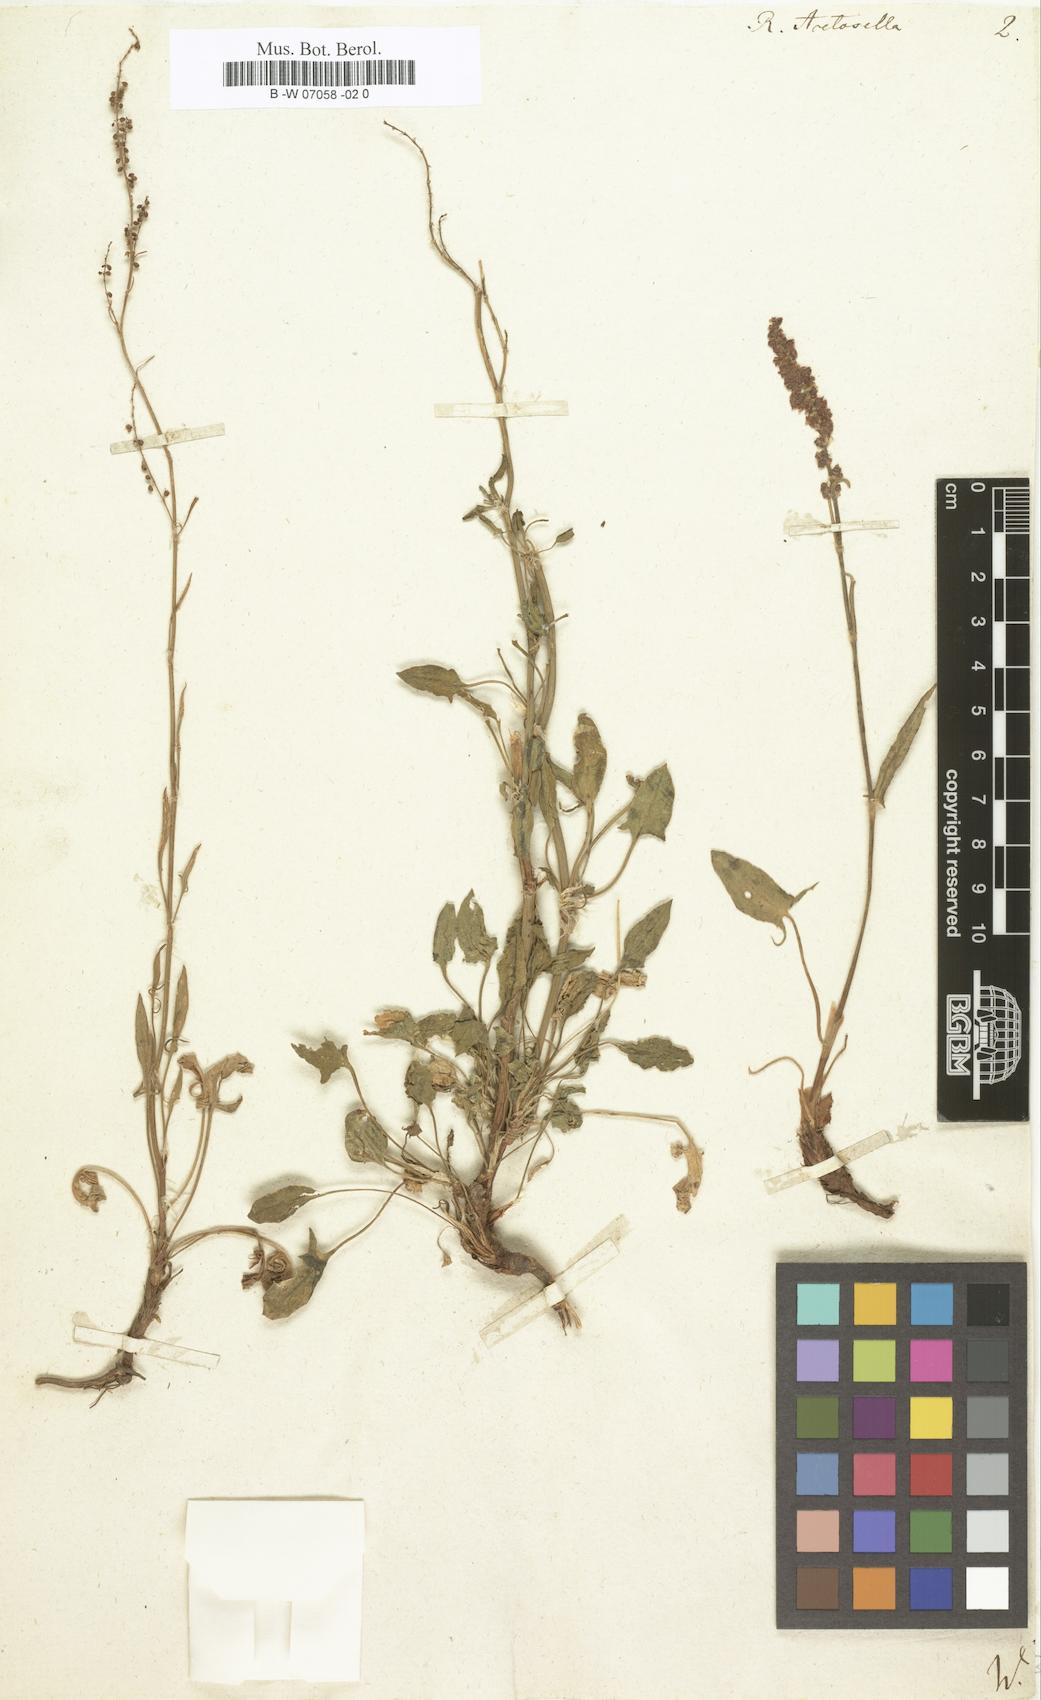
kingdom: Plantae
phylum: Tracheophyta
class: Magnoliopsida
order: Caryophyllales
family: Polygonaceae
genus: Rumex
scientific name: Rumex acetosella
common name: Common sheep sorrel
